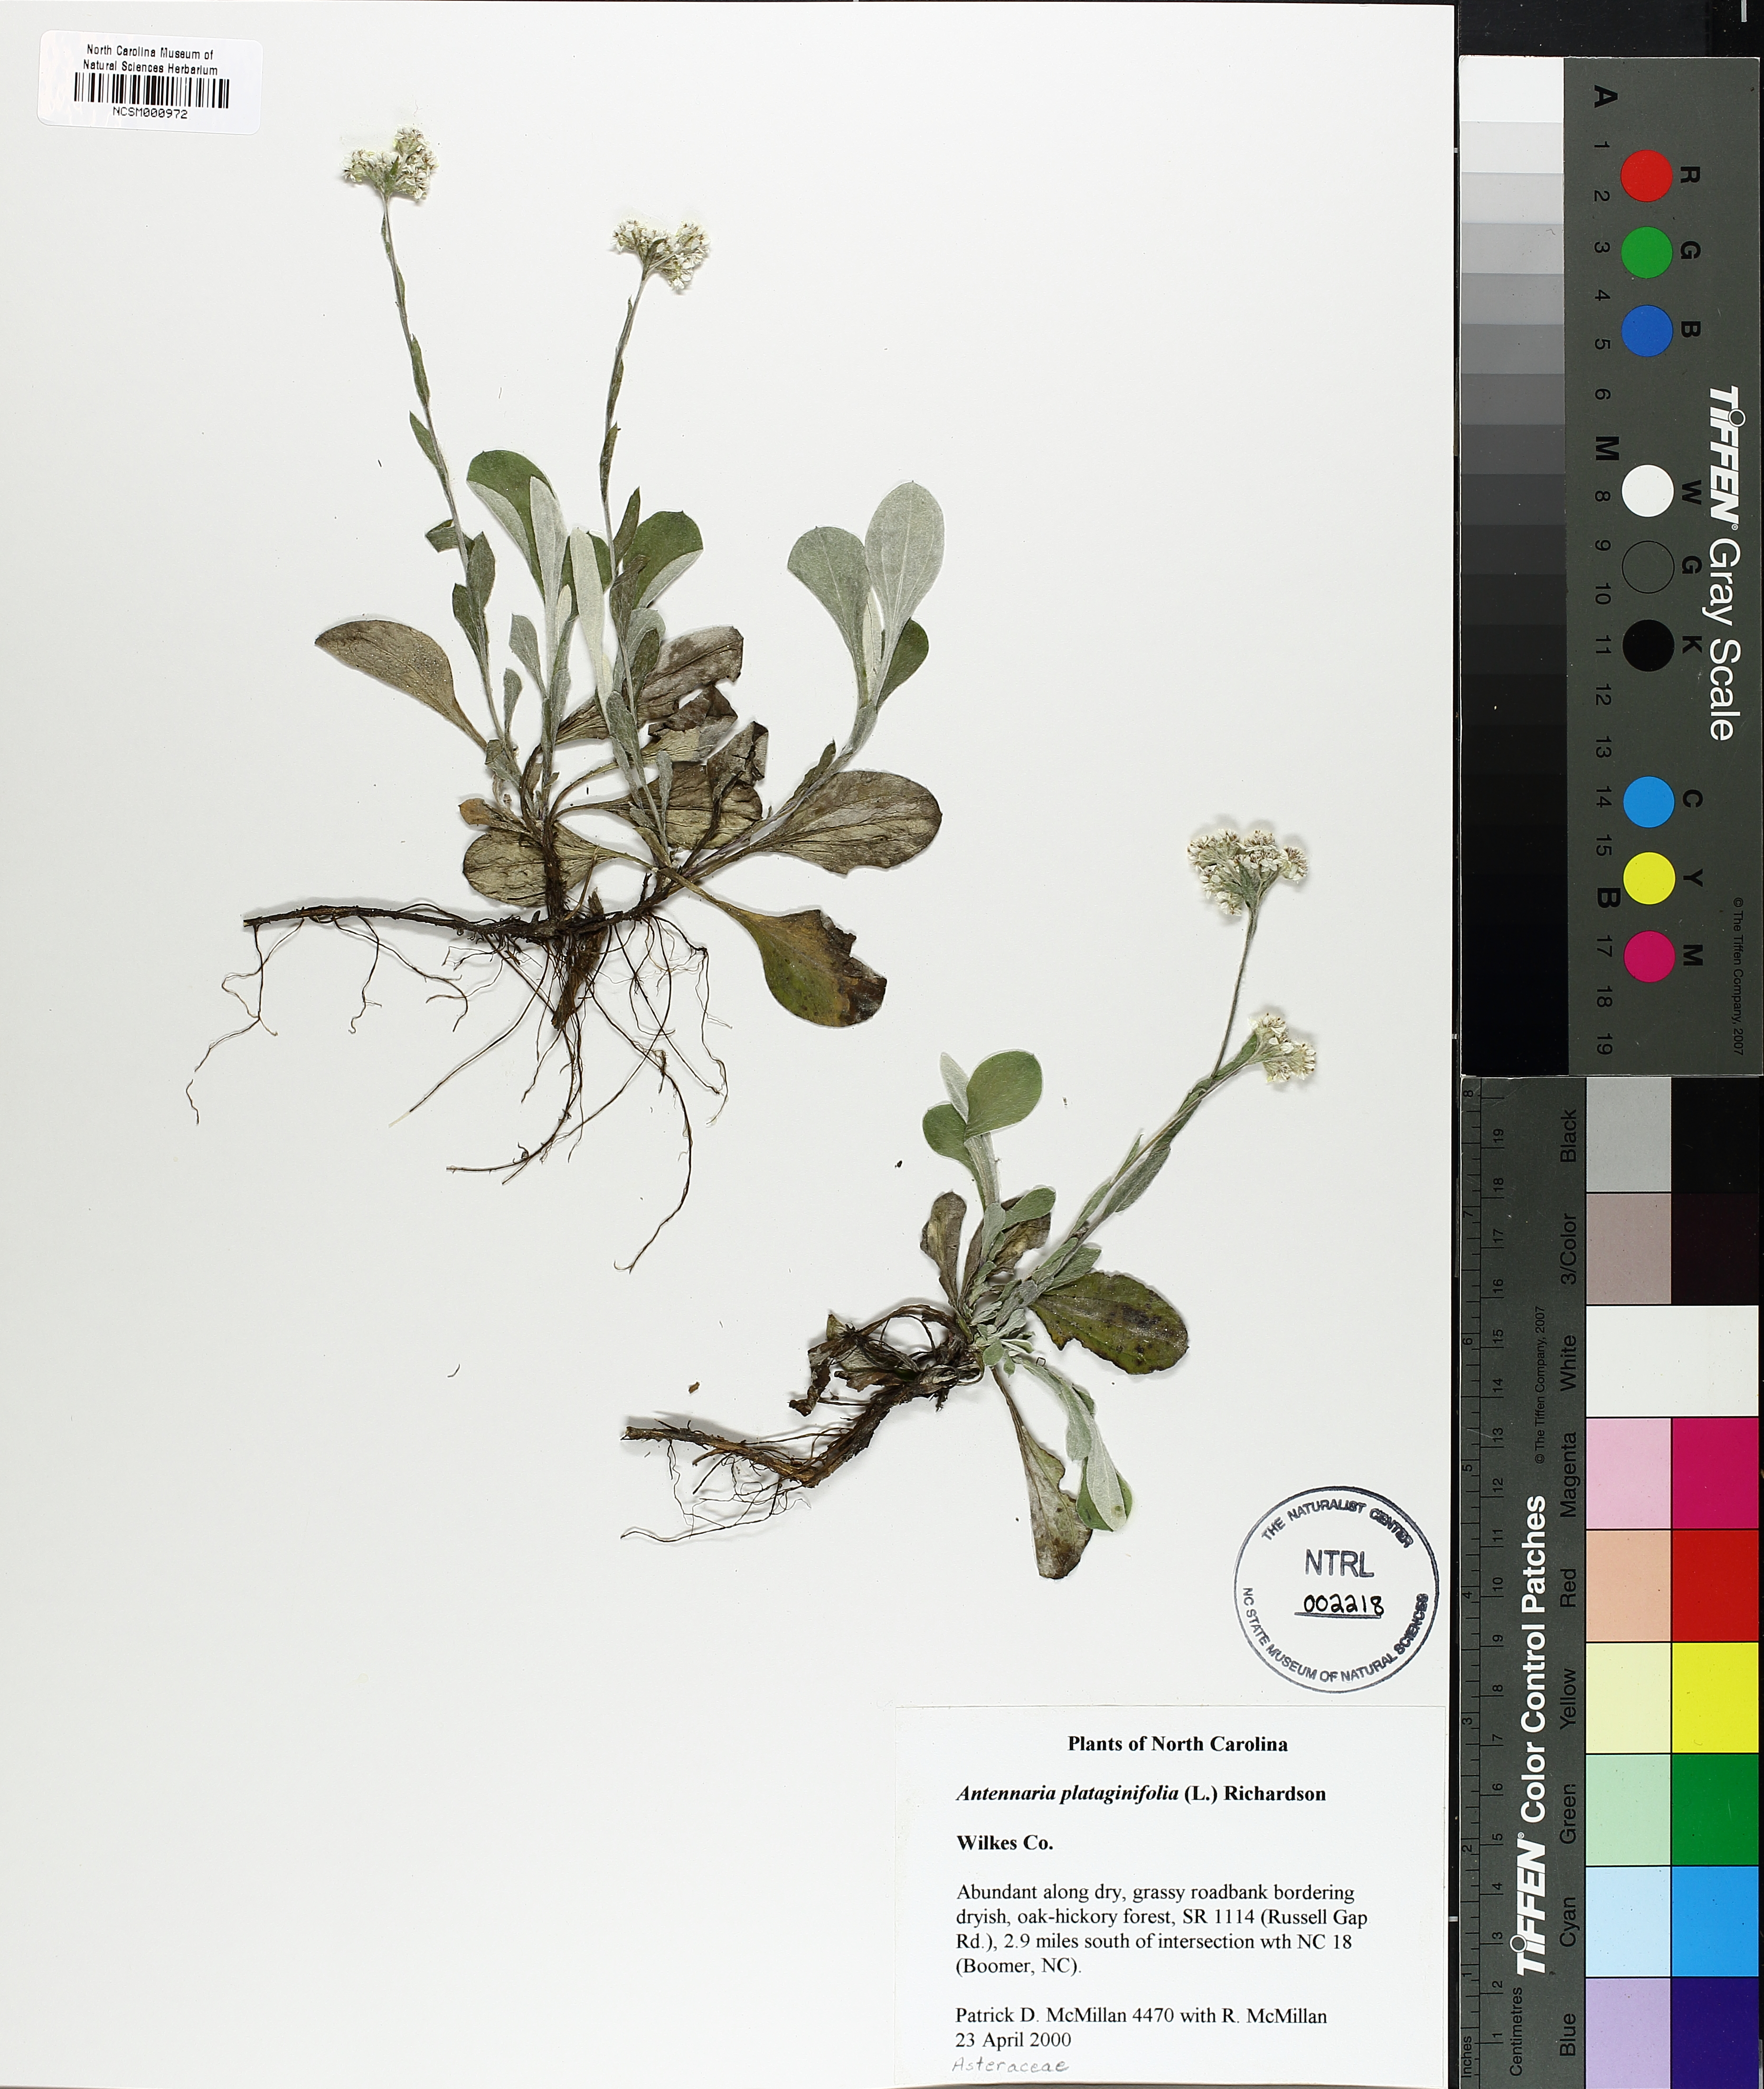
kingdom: Plantae
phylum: Tracheophyta
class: Magnoliopsida
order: Asterales
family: Asteraceae
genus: Antennaria
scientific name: Antennaria plantaginifolia
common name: Plantain-leaved pussytoes
